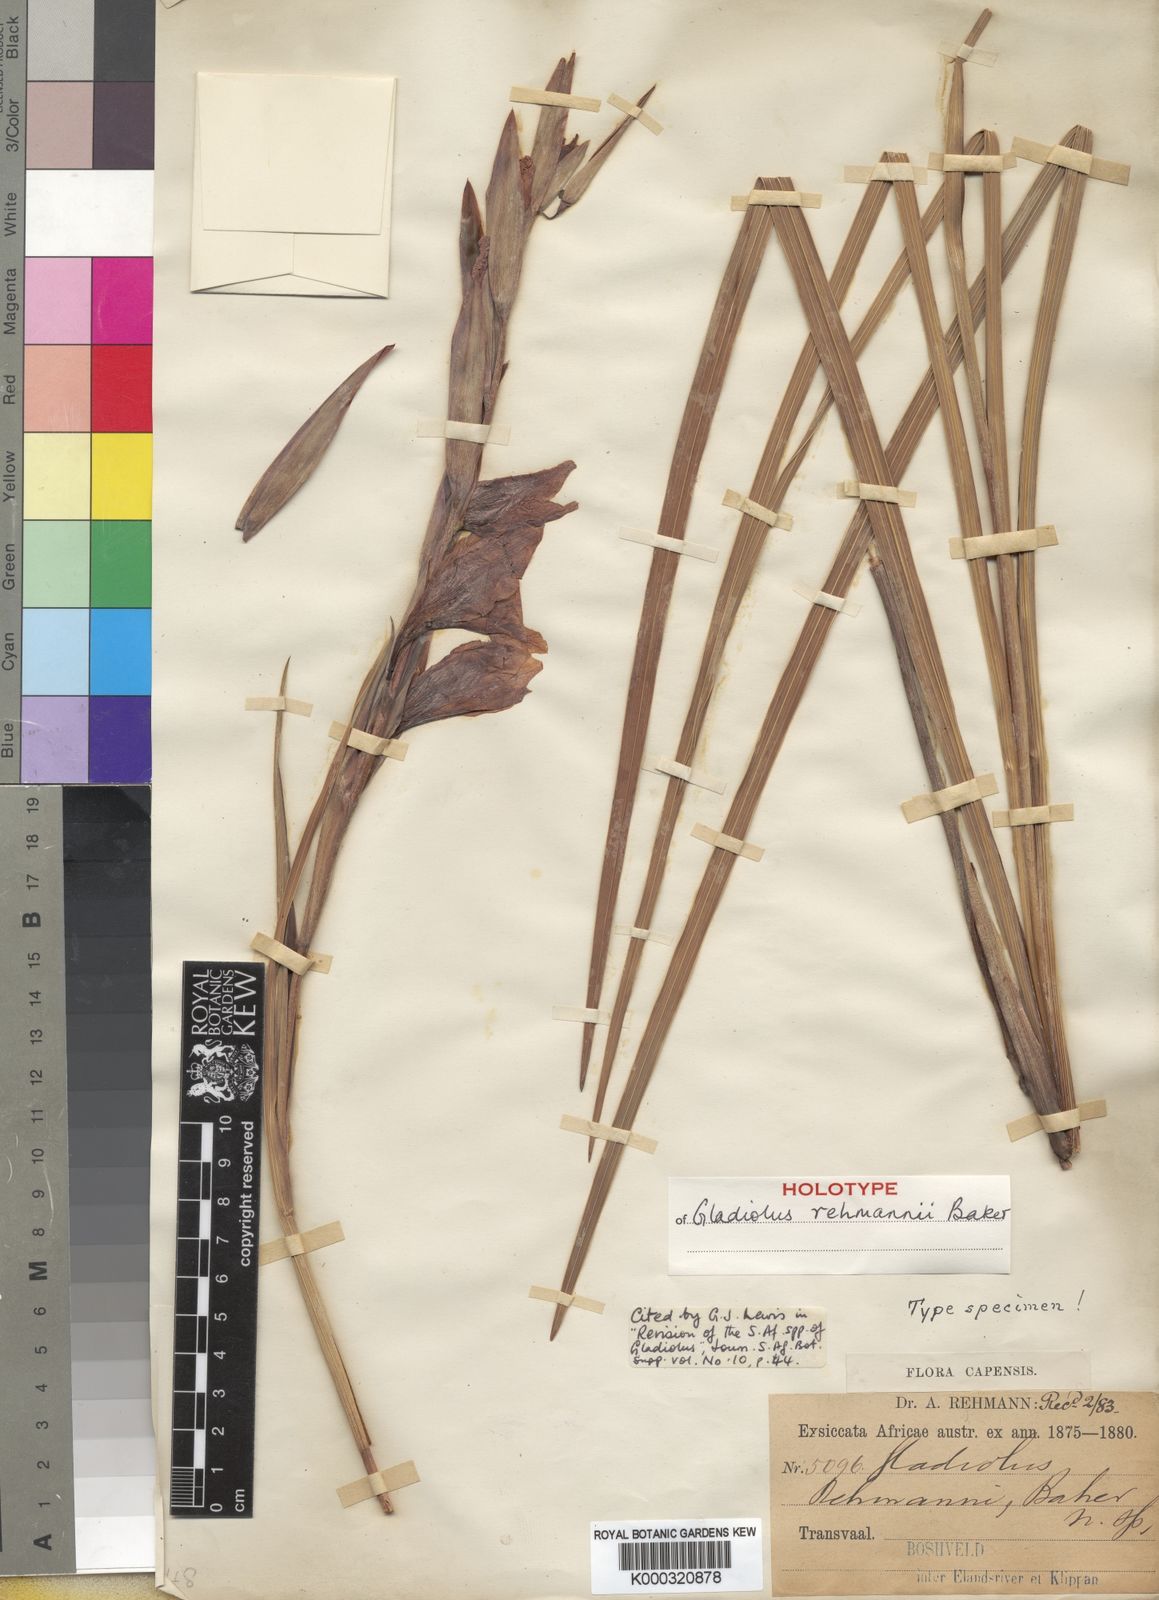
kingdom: Plantae
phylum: Tracheophyta
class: Liliopsida
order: Asparagales
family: Iridaceae
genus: Gladiolus
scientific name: Gladiolus rehmannii
